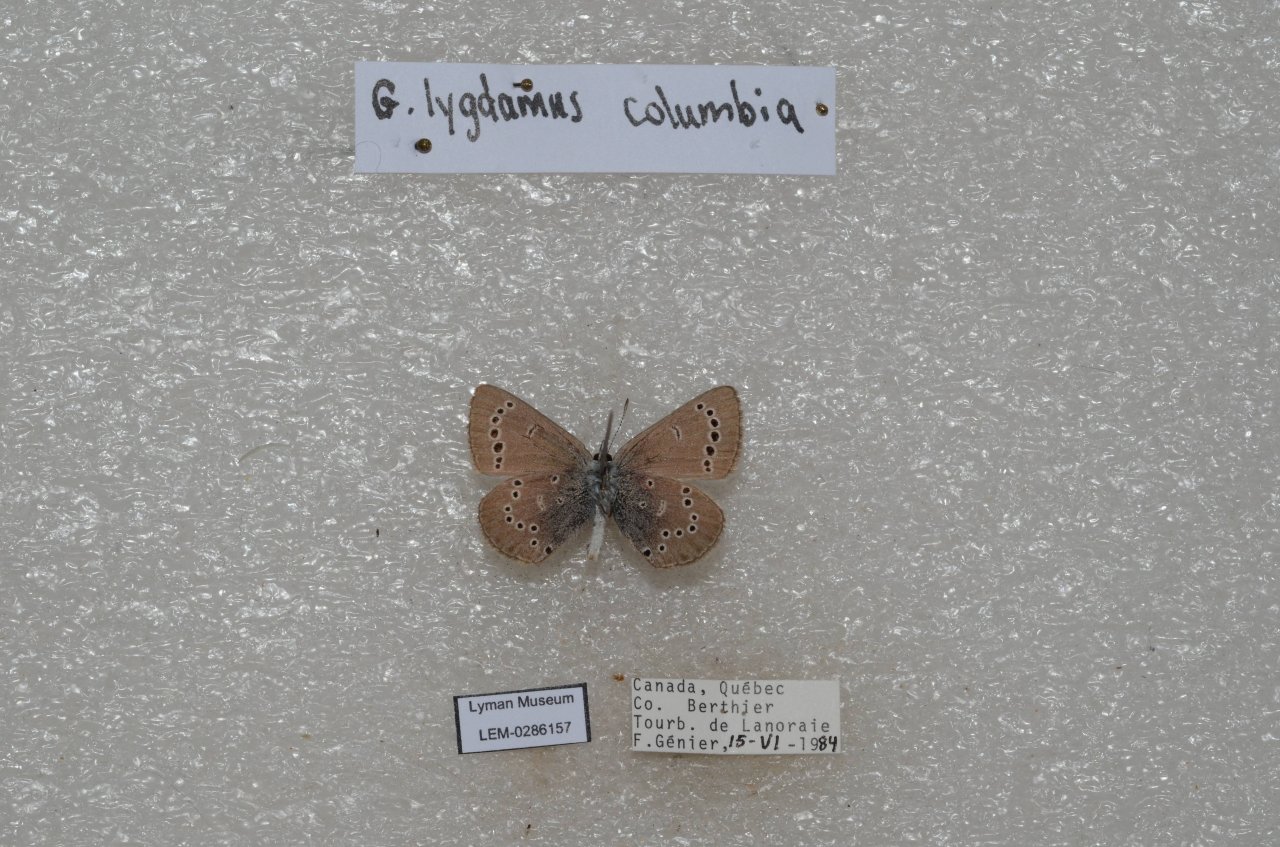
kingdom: Animalia
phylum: Arthropoda
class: Insecta
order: Lepidoptera
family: Lycaenidae
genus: Glaucopsyche
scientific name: Glaucopsyche lygdamus
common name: Silvery Blue
